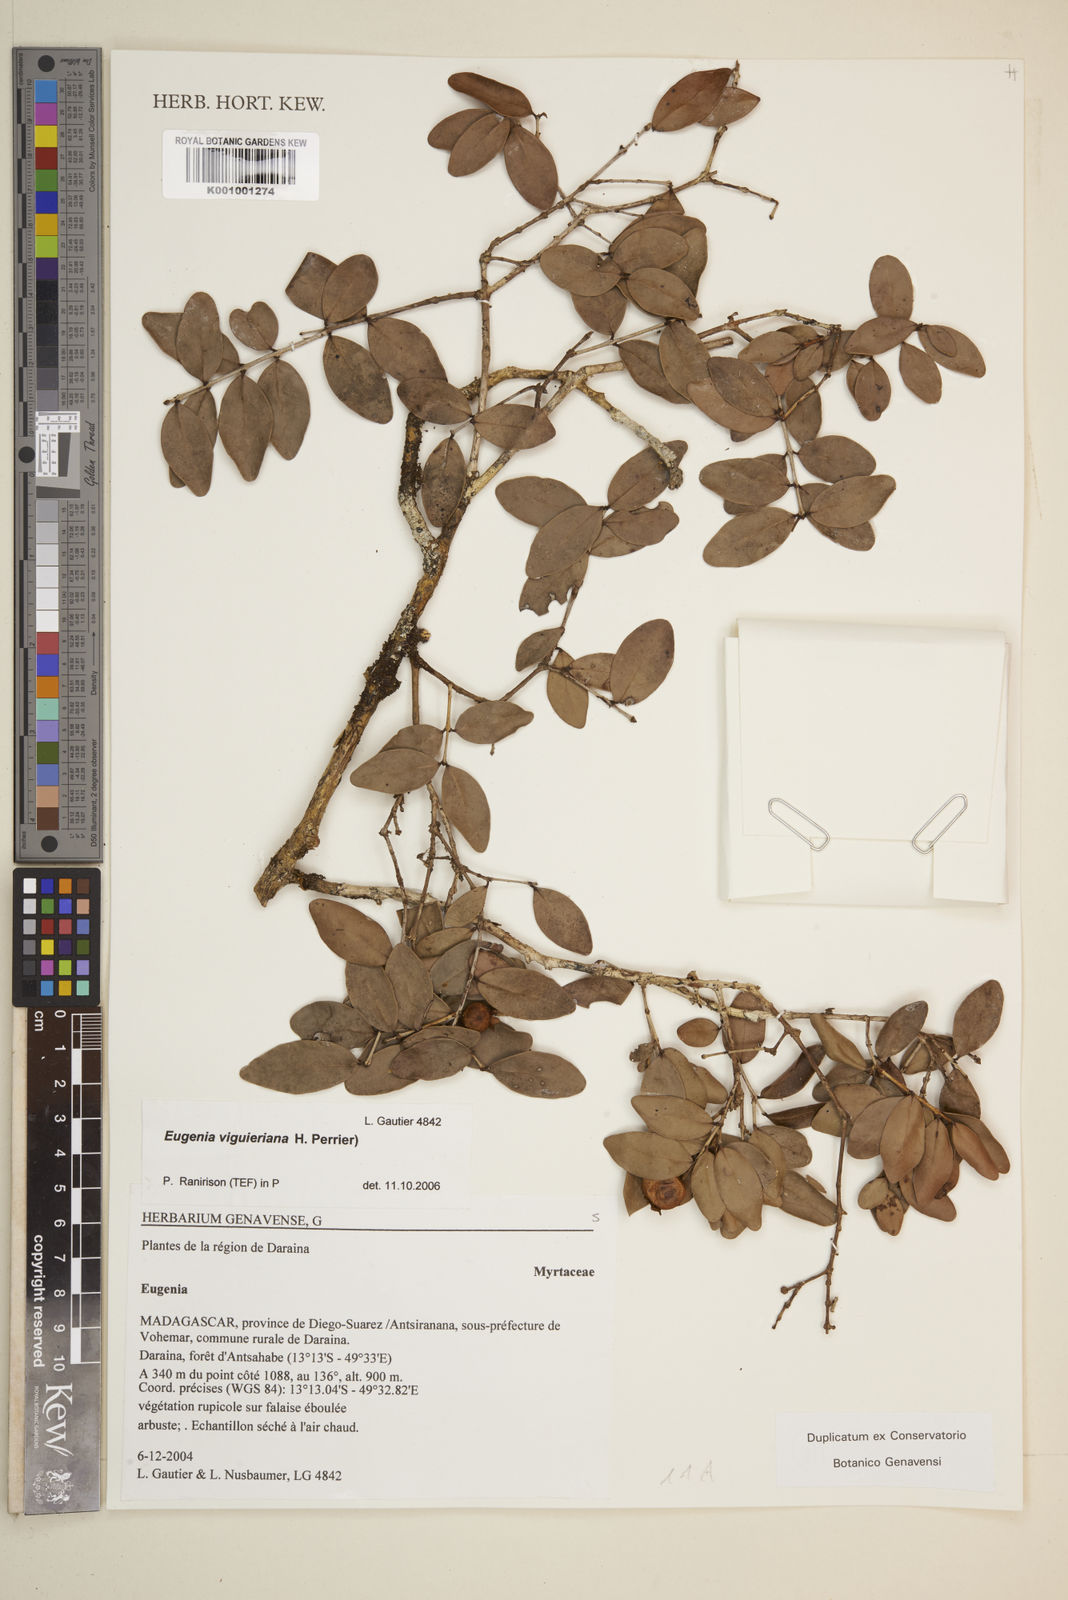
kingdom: Plantae
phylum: Tracheophyta
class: Magnoliopsida
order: Myrtales
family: Myrtaceae
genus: Eugenia
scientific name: Eugenia viguieriana
